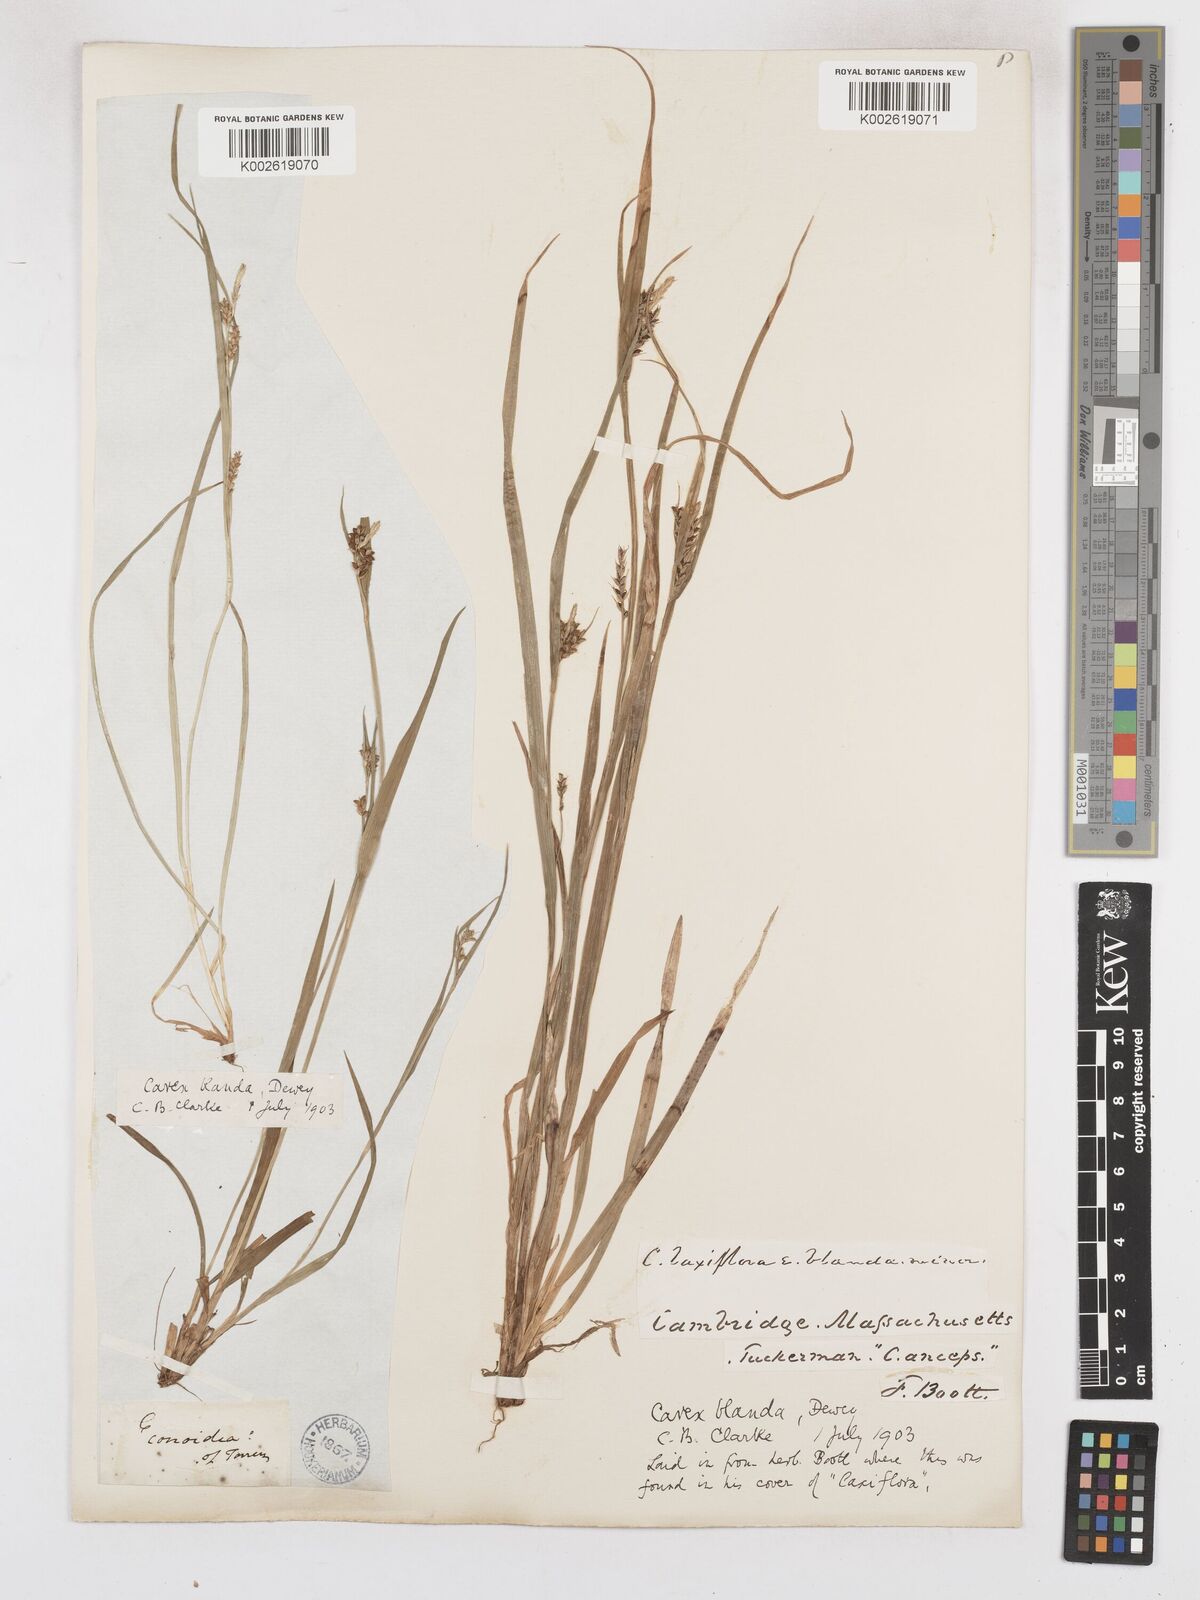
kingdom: Plantae
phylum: Tracheophyta
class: Liliopsida
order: Poales
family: Cyperaceae
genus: Carex
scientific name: Carex blanda
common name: Bland sedge
